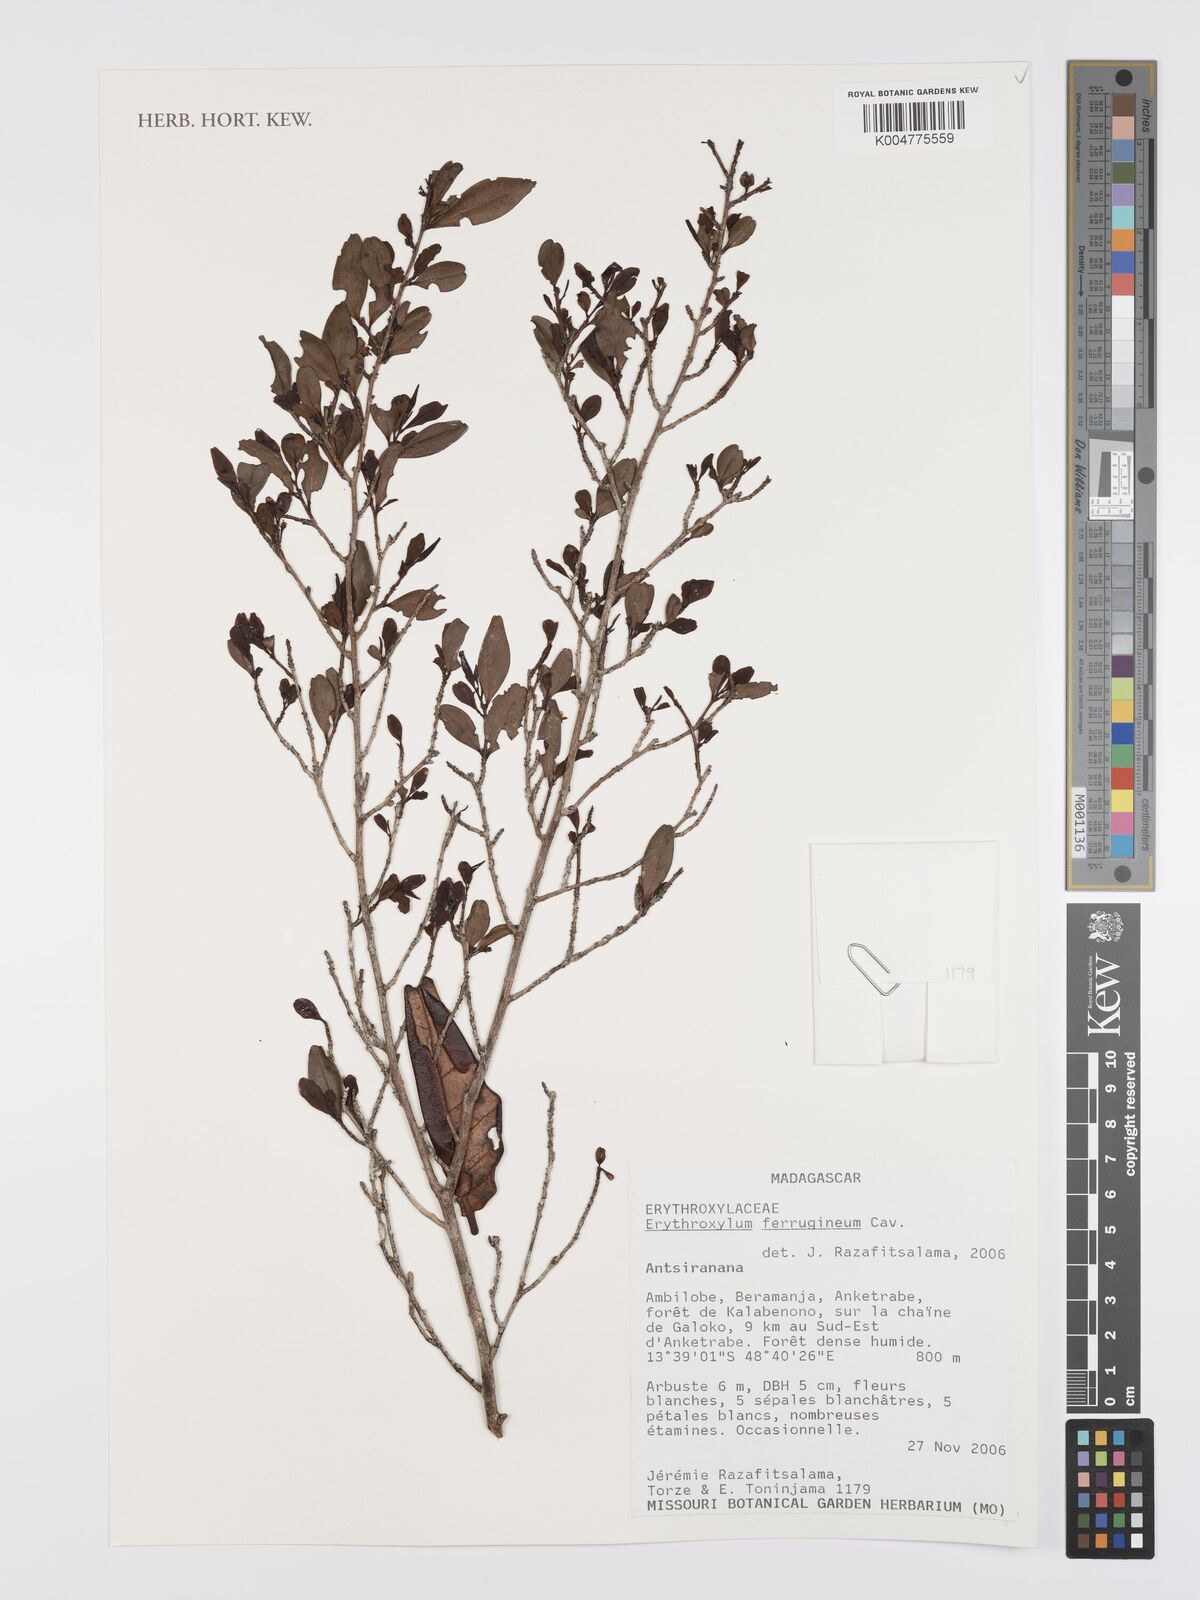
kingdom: Plantae
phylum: Tracheophyta
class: Magnoliopsida
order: Malpighiales
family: Erythroxylaceae
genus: Erythroxylum
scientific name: Erythroxylum ferrugineum
